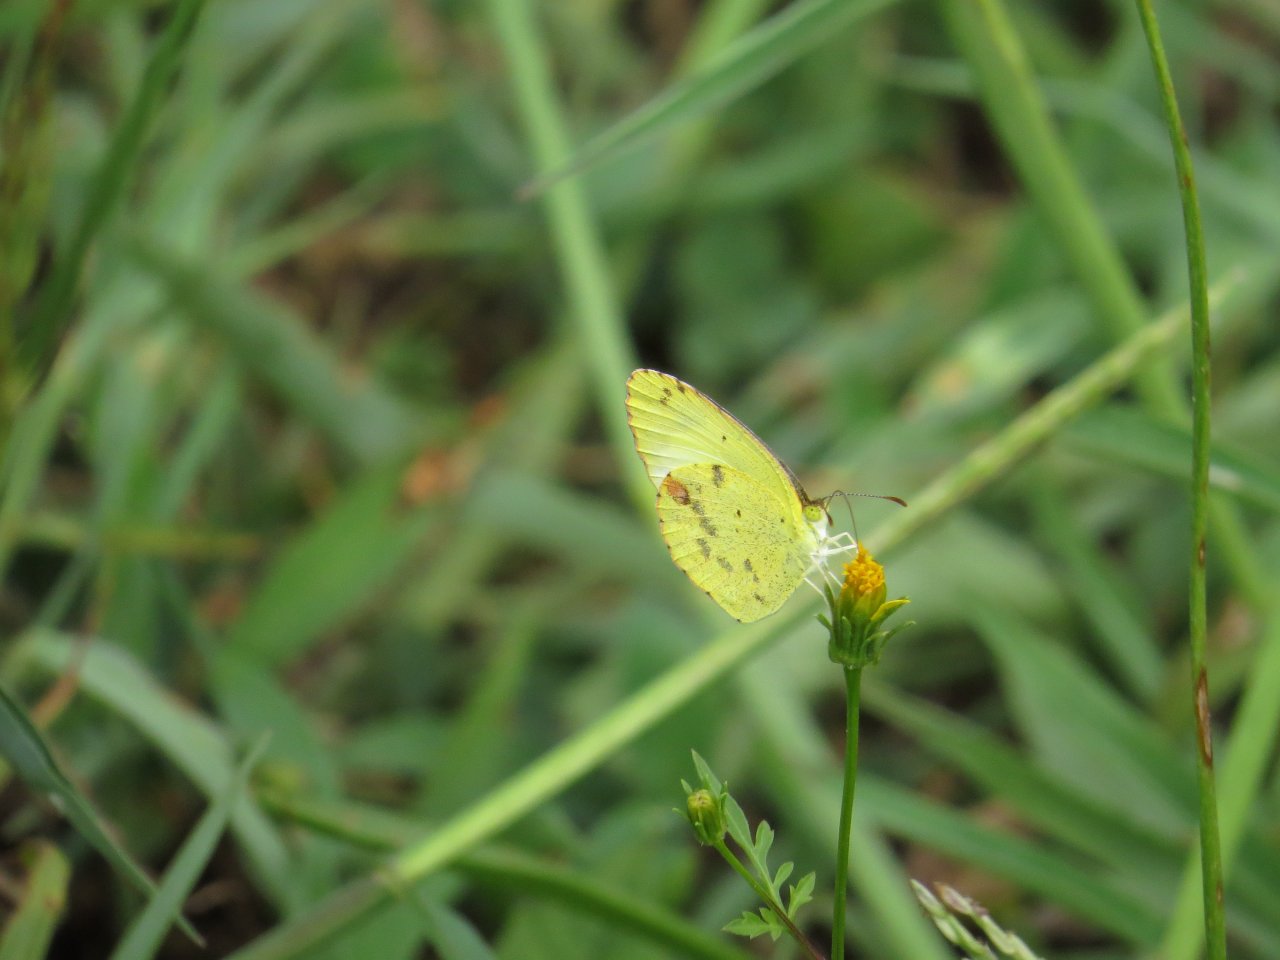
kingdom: Animalia
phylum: Arthropoda
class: Insecta
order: Lepidoptera
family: Pieridae
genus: Pyrisitia
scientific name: Pyrisitia lisa
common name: Little Yellow
